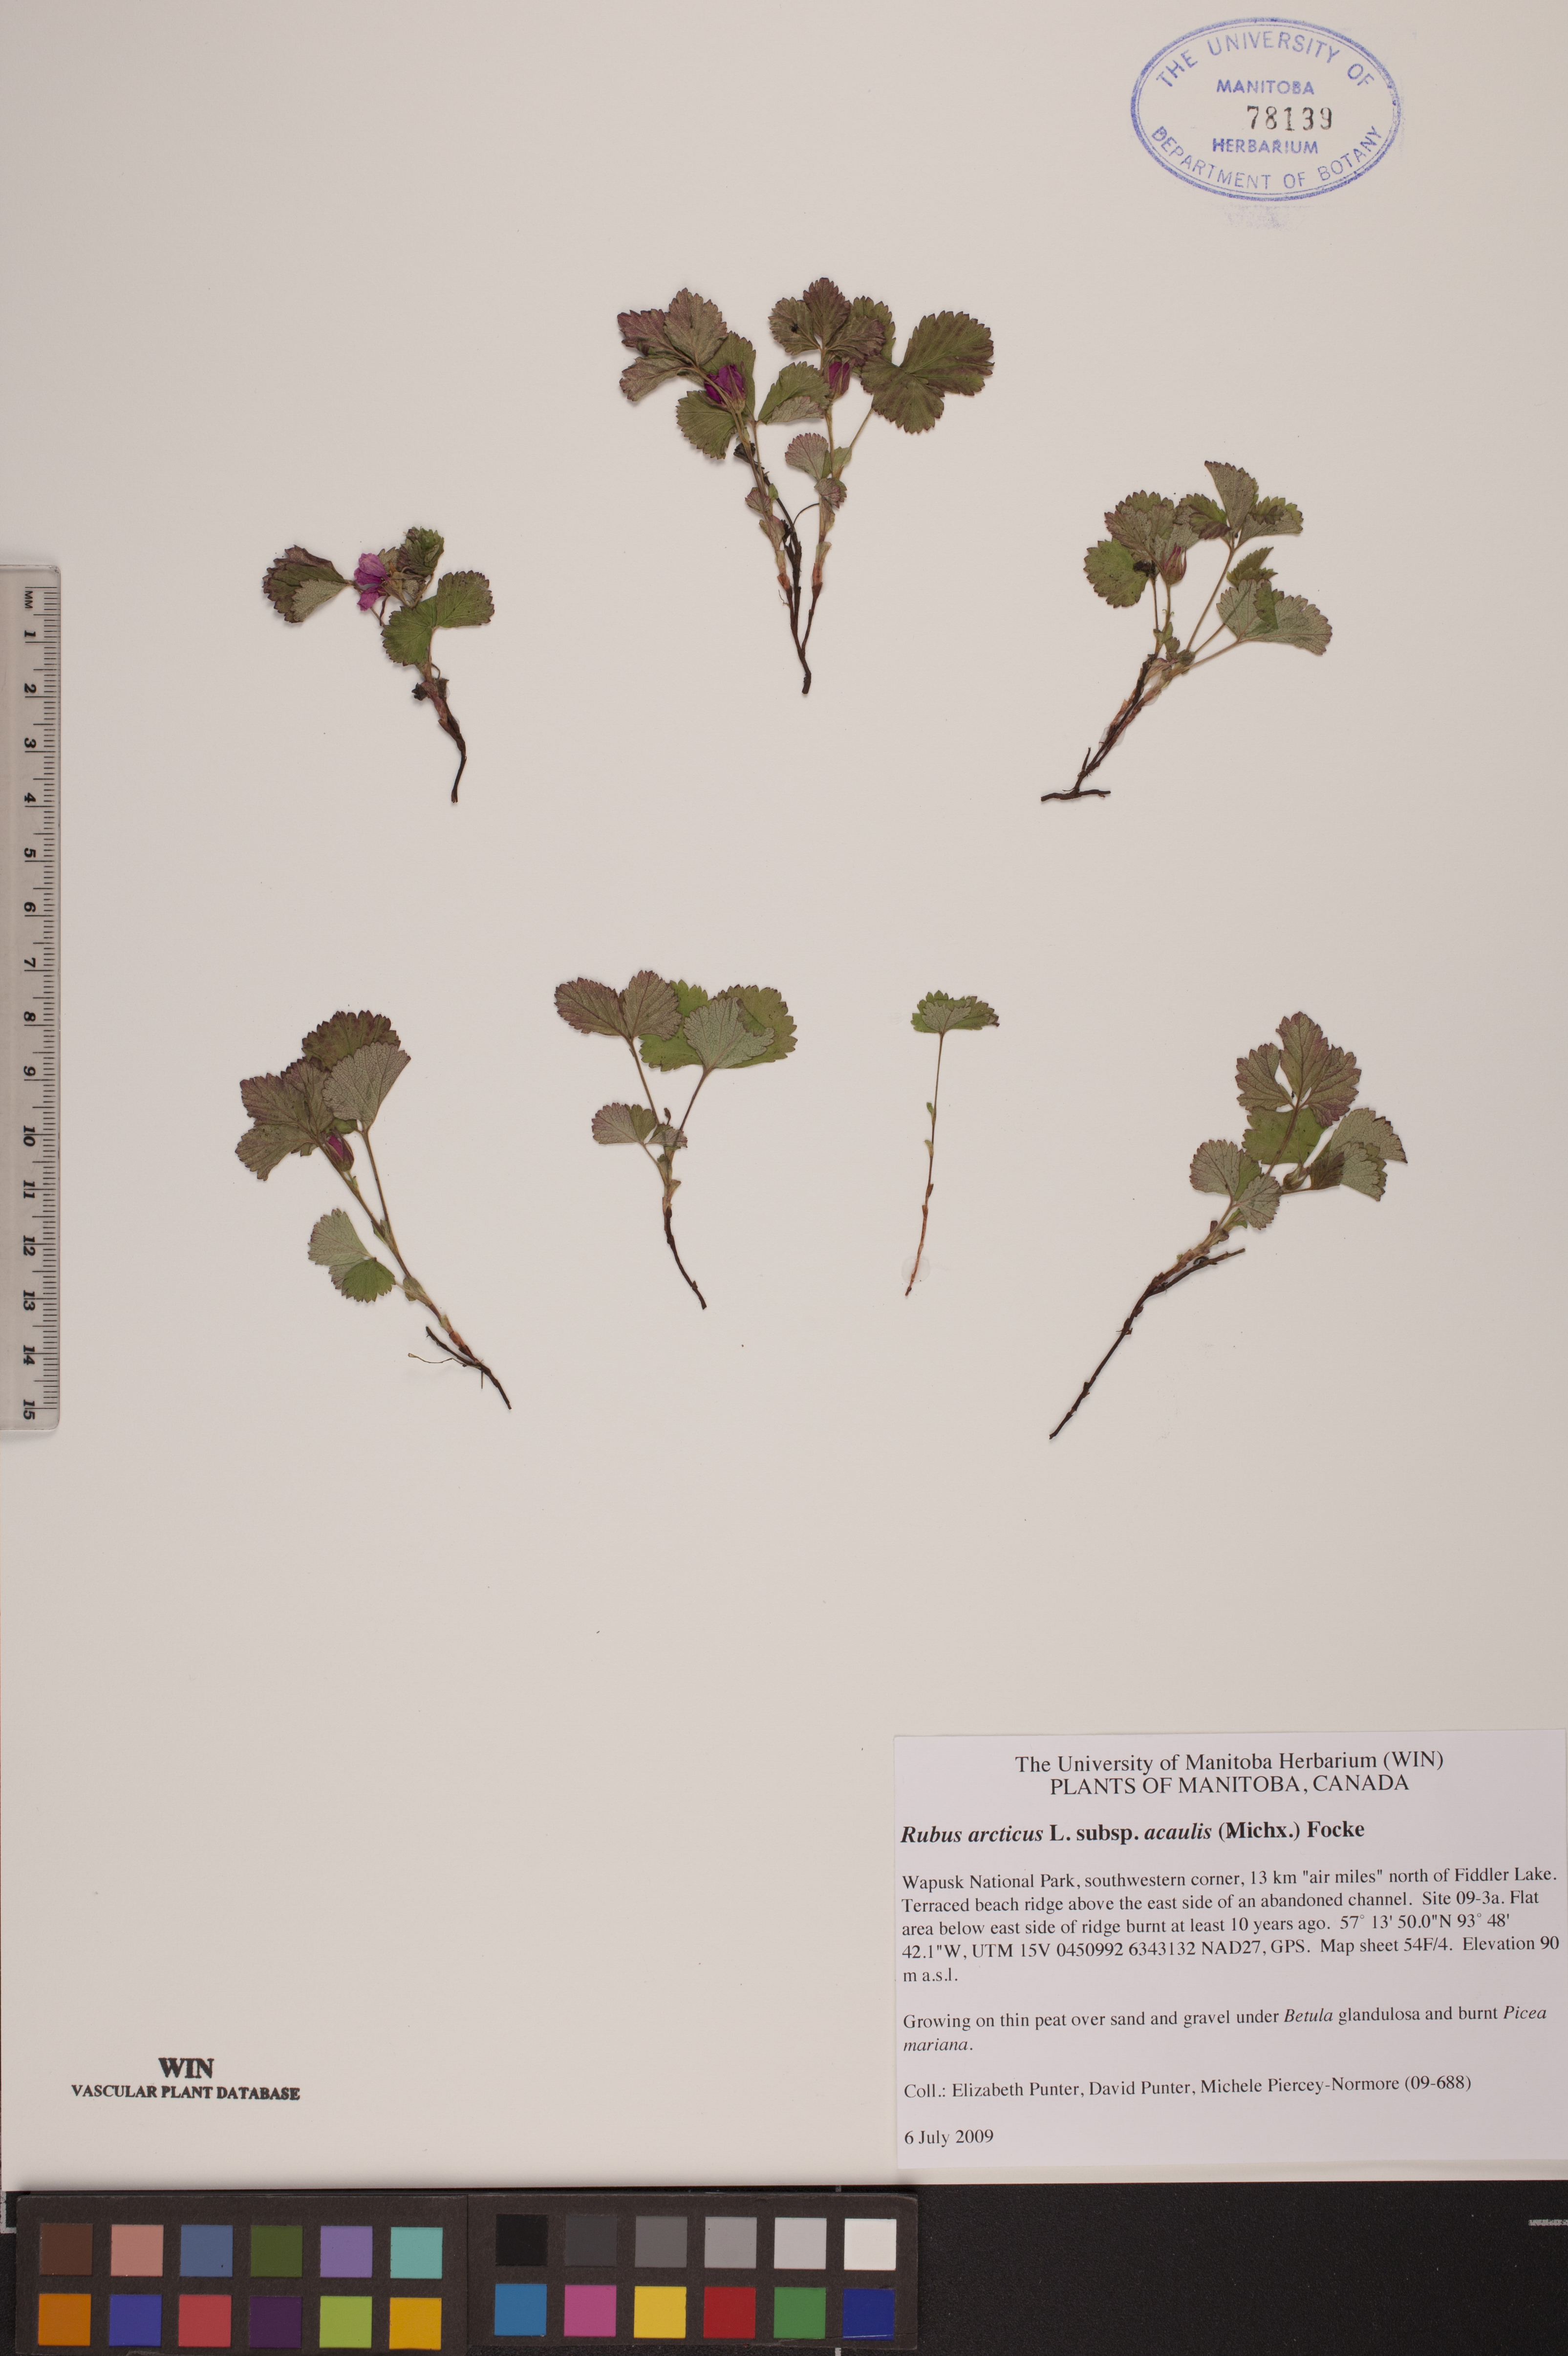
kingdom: Plantae
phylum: Tracheophyta
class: Magnoliopsida
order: Rosales
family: Rosaceae
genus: Rubus
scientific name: Rubus arcticus
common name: Arctic bramble
